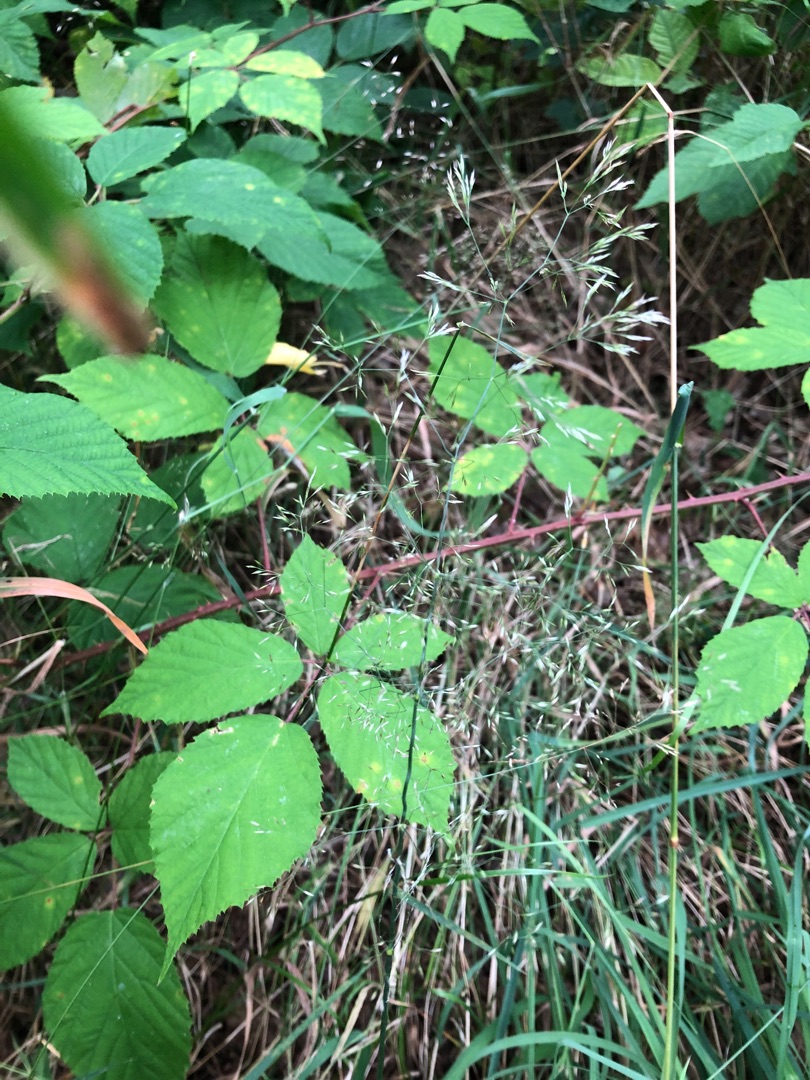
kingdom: Plantae
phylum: Tracheophyta
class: Liliopsida
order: Poales
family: Poaceae
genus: Agrostis
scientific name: Agrostis
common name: Hveneslægten
